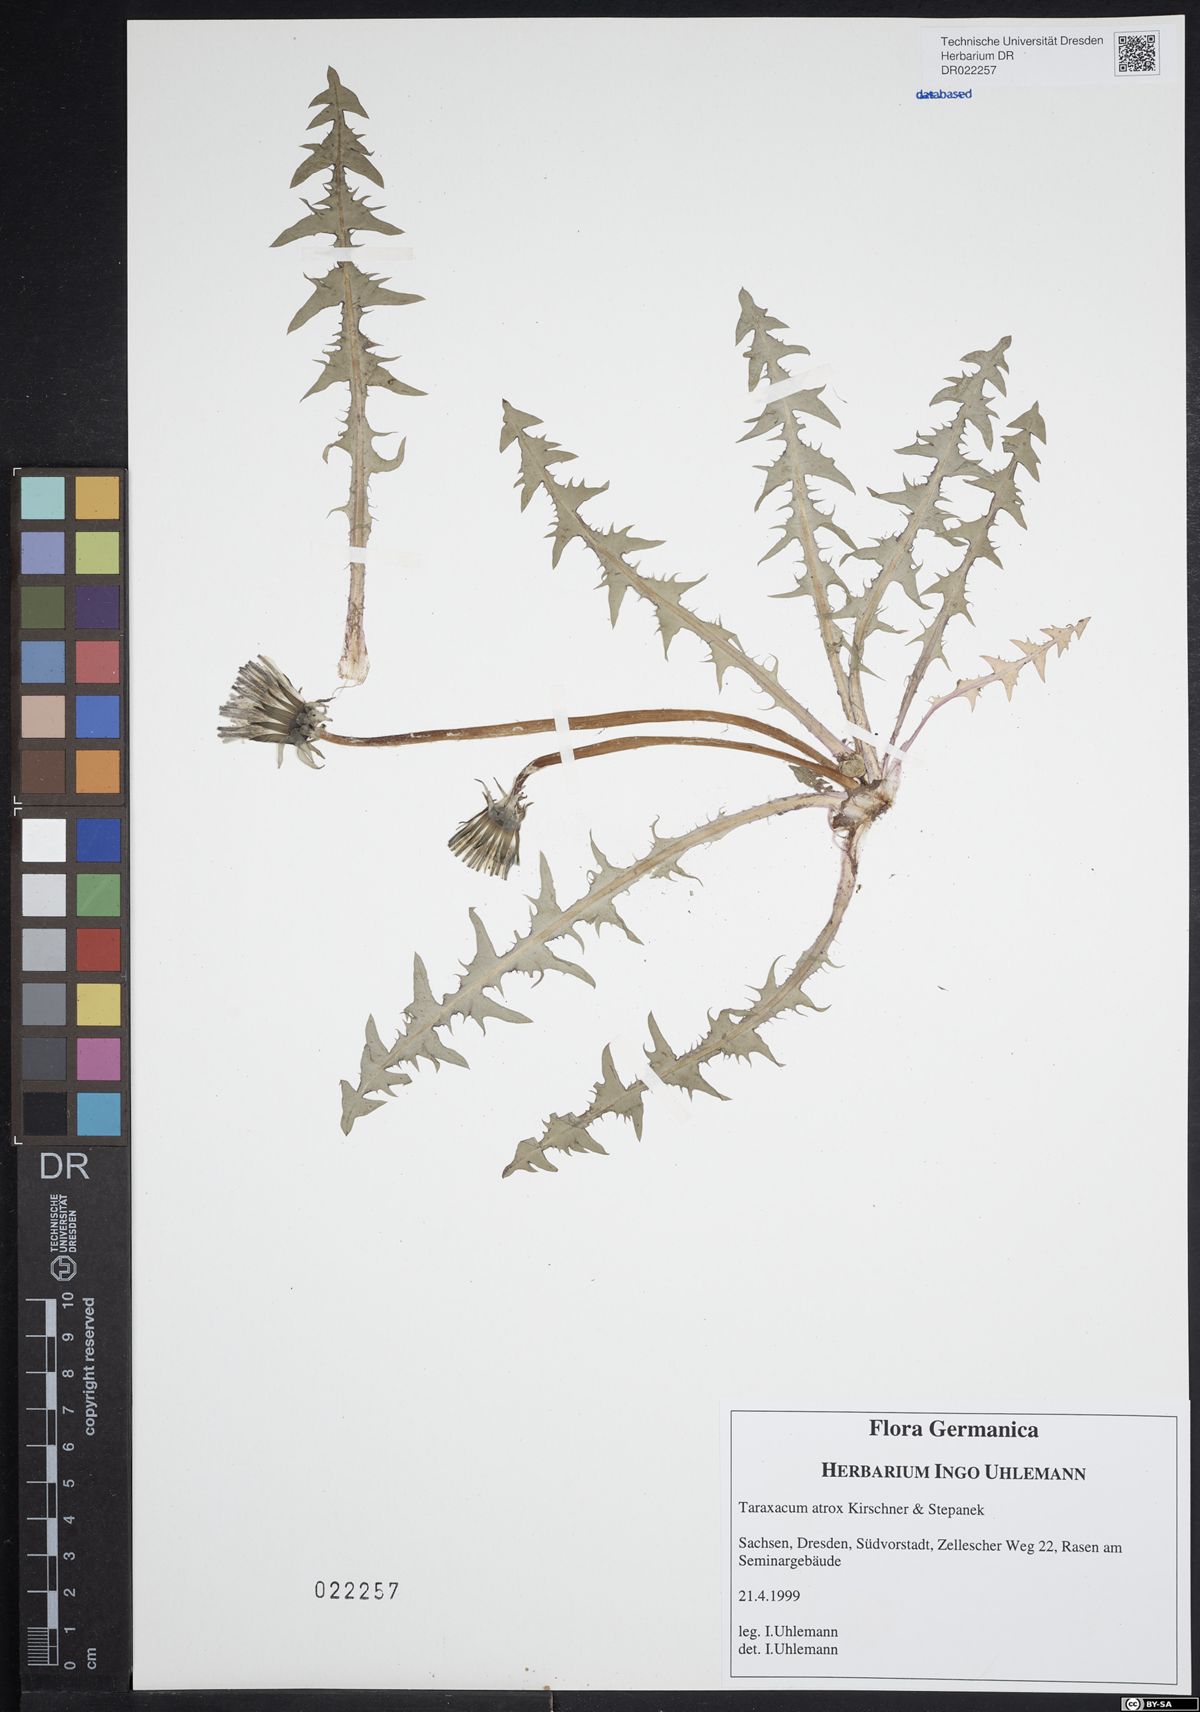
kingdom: Plantae
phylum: Tracheophyta
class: Magnoliopsida
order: Asterales
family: Asteraceae
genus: Taraxacum
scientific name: Taraxacum atrox
